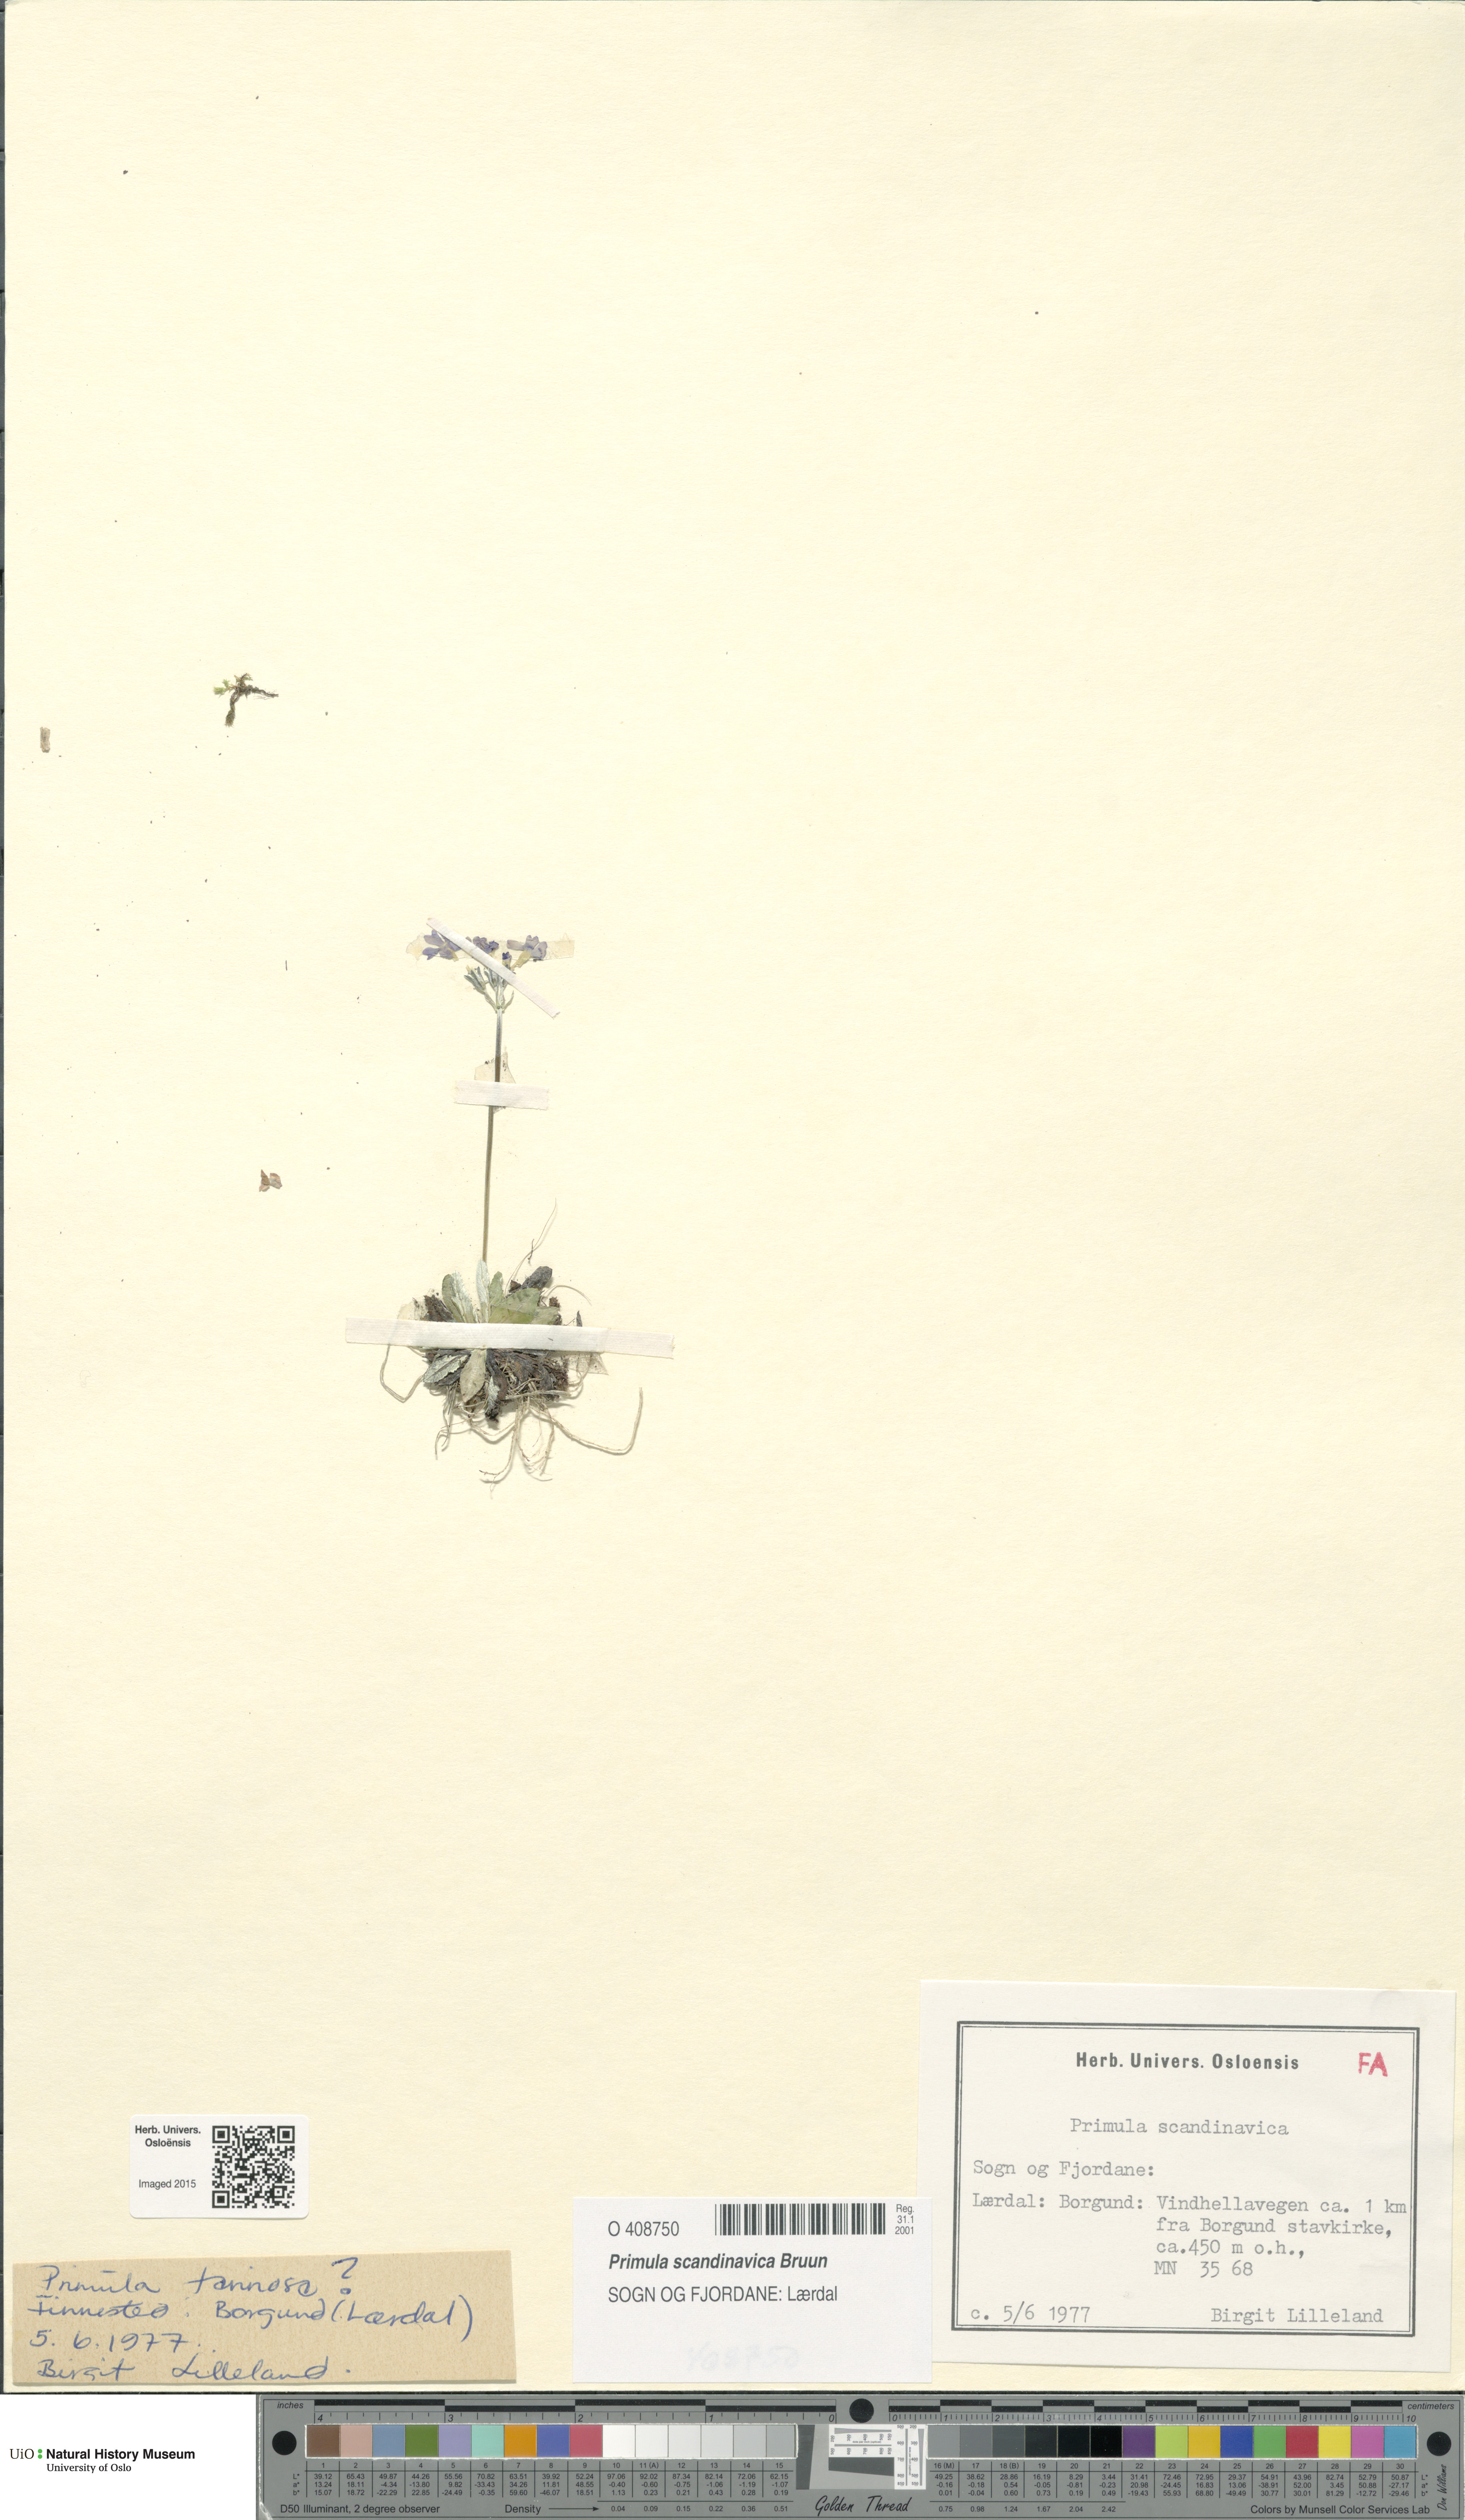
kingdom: Plantae
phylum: Tracheophyta
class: Magnoliopsida
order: Ericales
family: Primulaceae
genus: Primula
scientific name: Primula scandinavica
